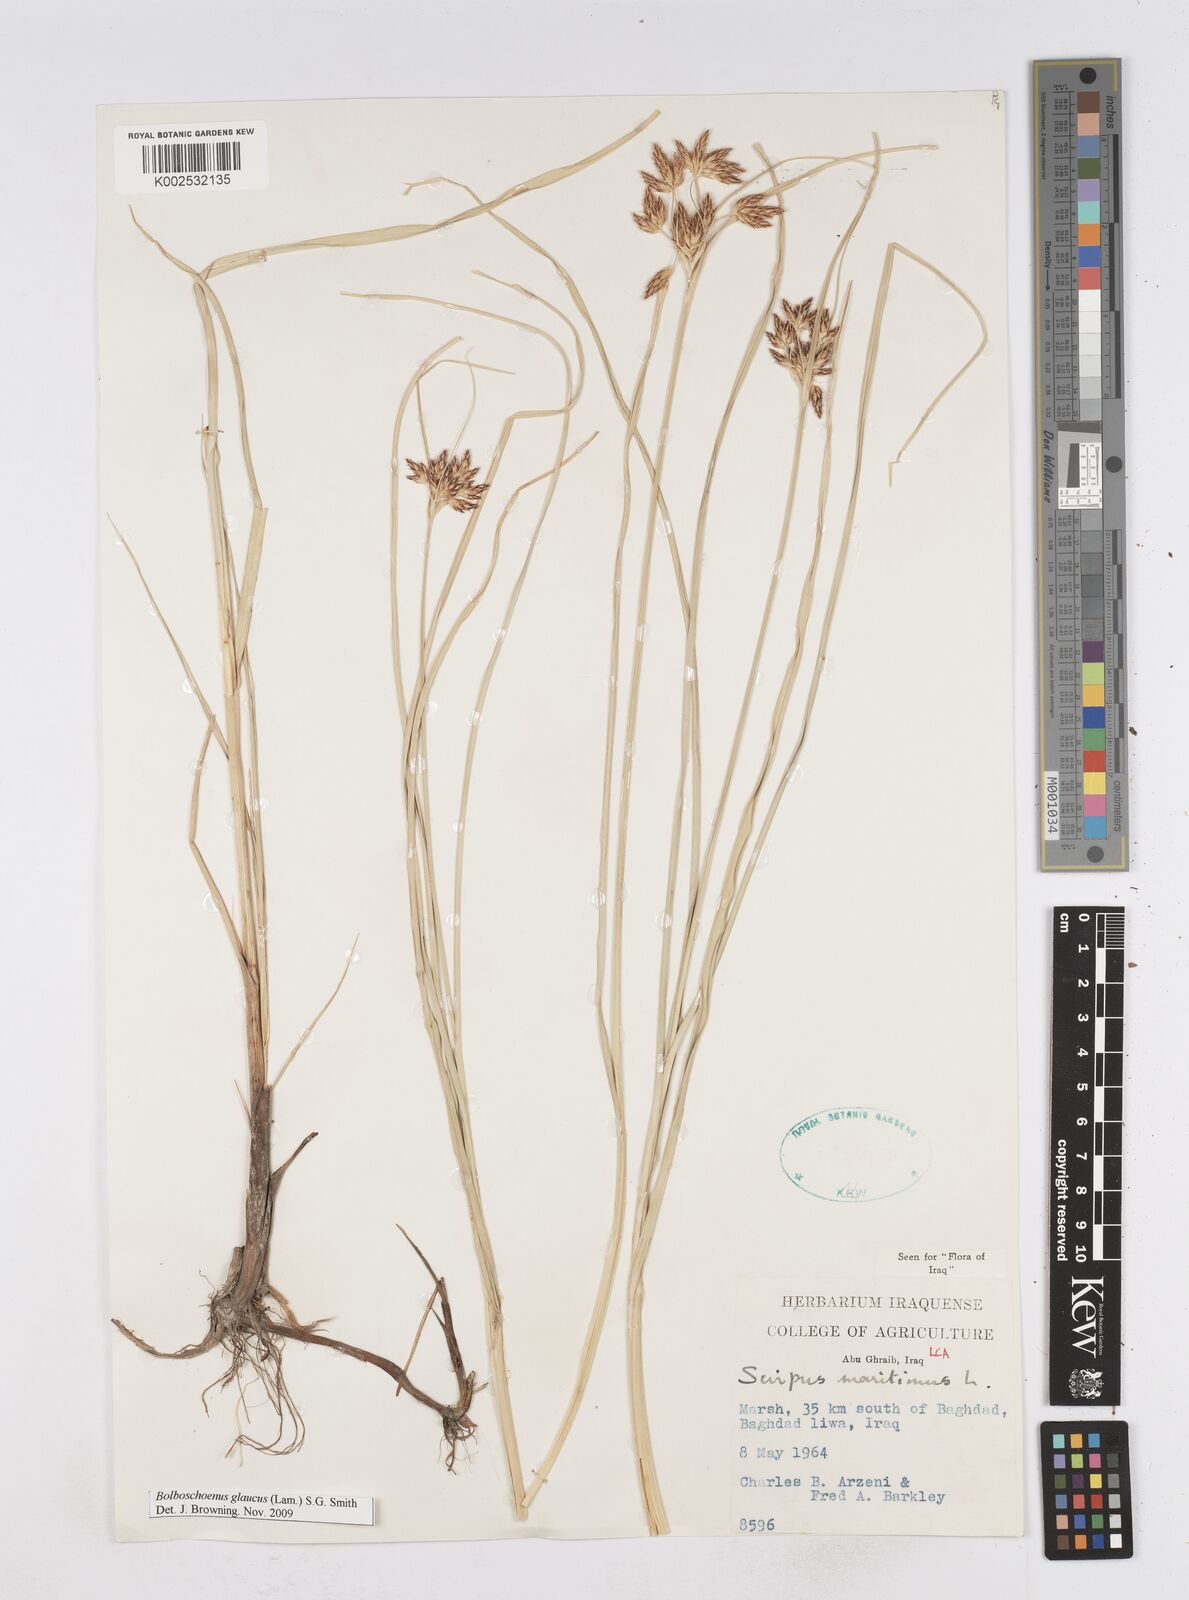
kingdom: Plantae
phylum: Tracheophyta
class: Liliopsida
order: Poales
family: Cyperaceae
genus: Bolboschoenus
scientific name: Bolboschoenus maritimus
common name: Sea club-rush
